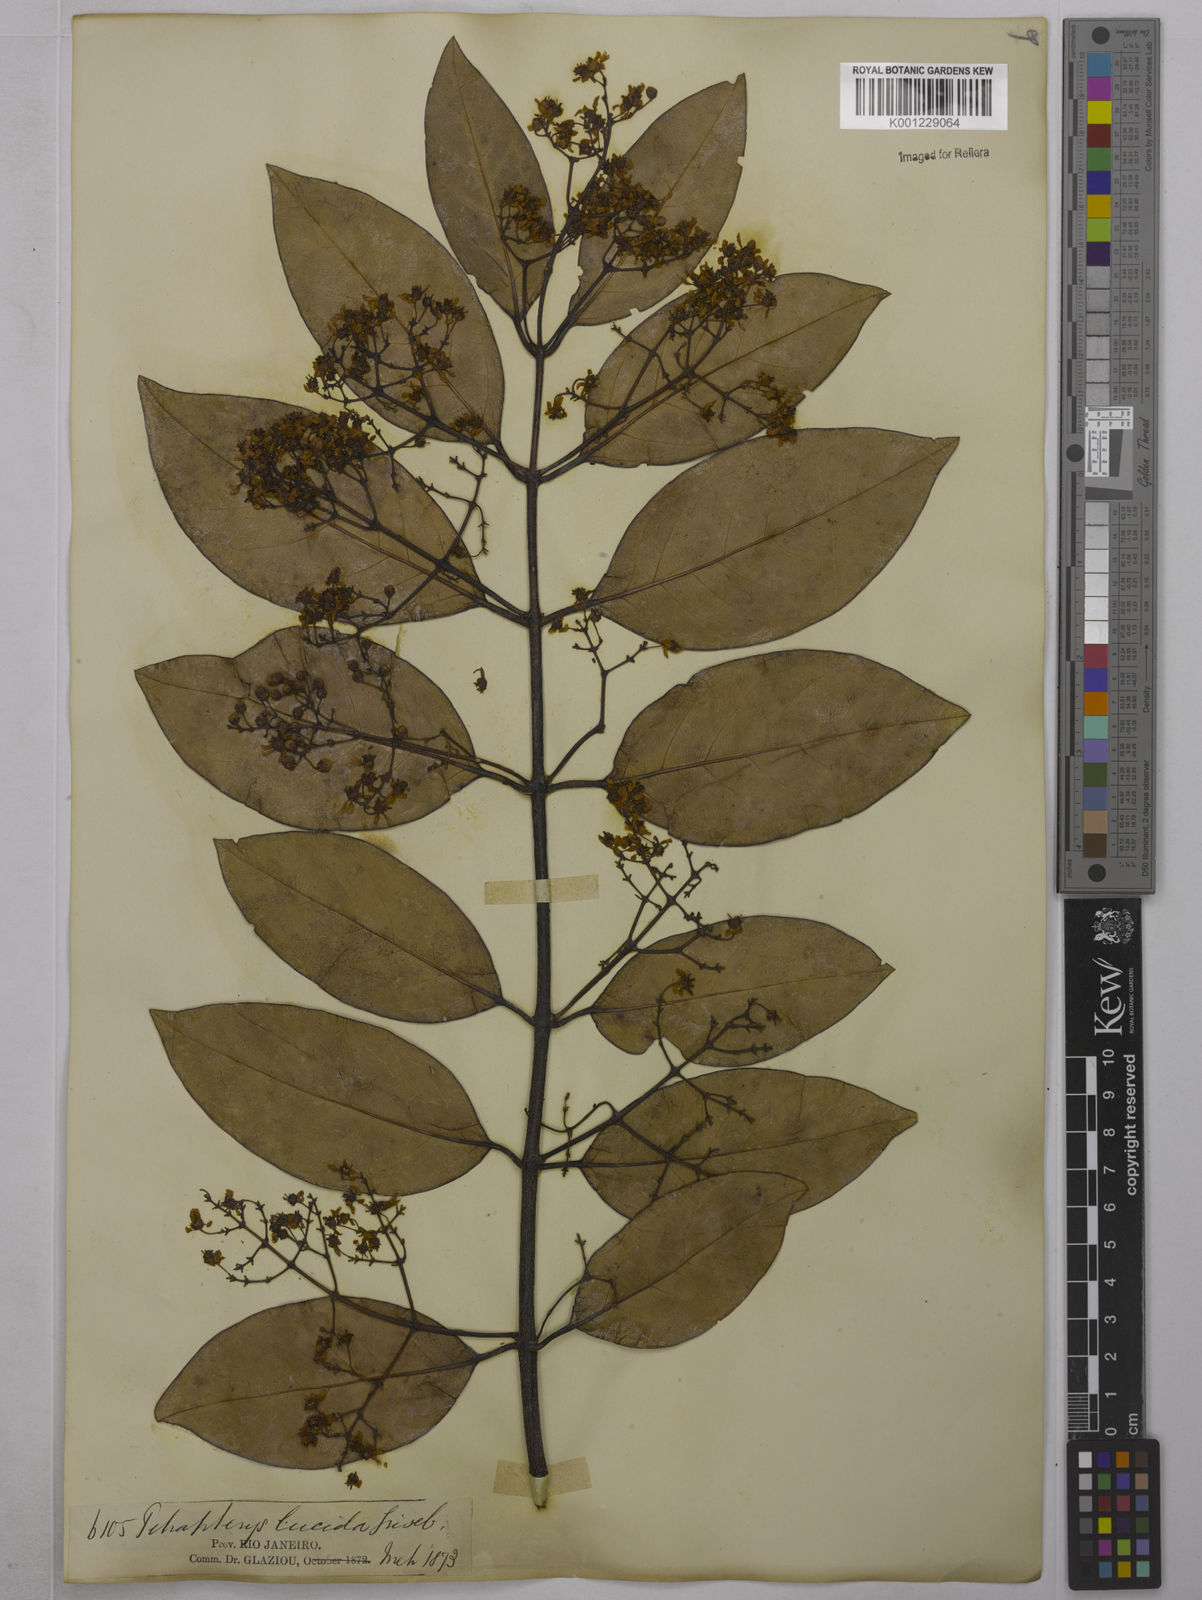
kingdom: Plantae
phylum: Tracheophyta
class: Magnoliopsida
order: Malpighiales
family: Malpighiaceae
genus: Niedenzuella
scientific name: Niedenzuella lucida
